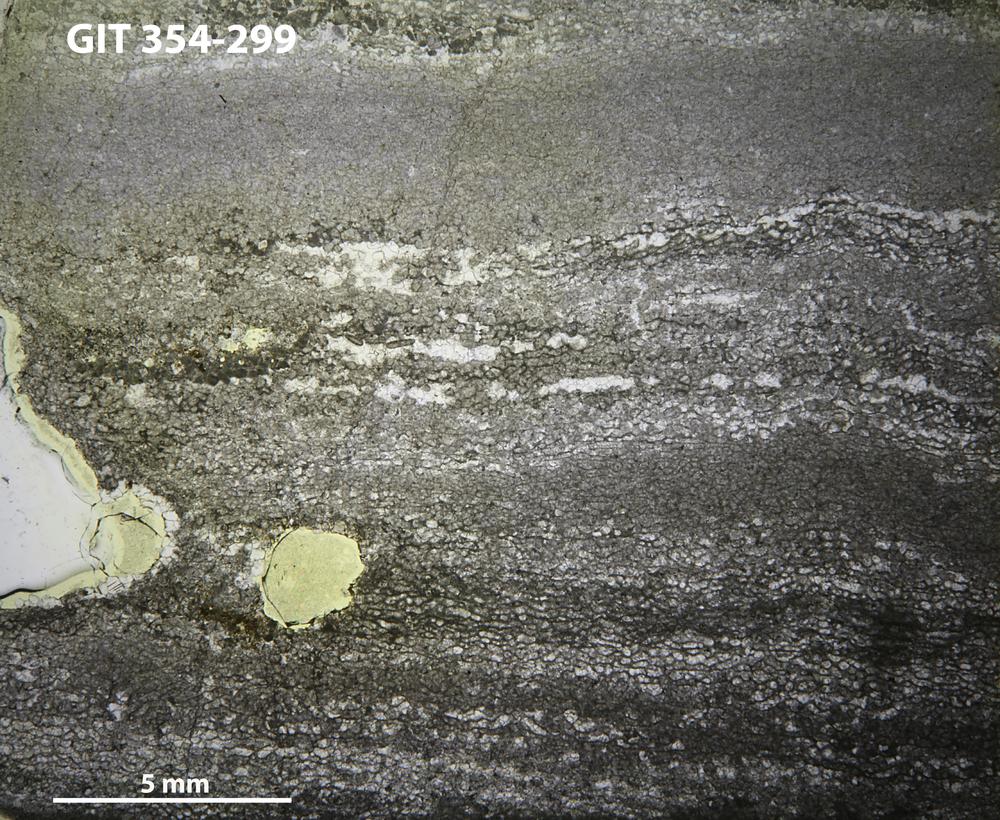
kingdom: Animalia
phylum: Porifera
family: Ecclimadictyidae
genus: Ecclimadictyon
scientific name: Ecclimadictyon Clathrodictyon microvesiculosum
